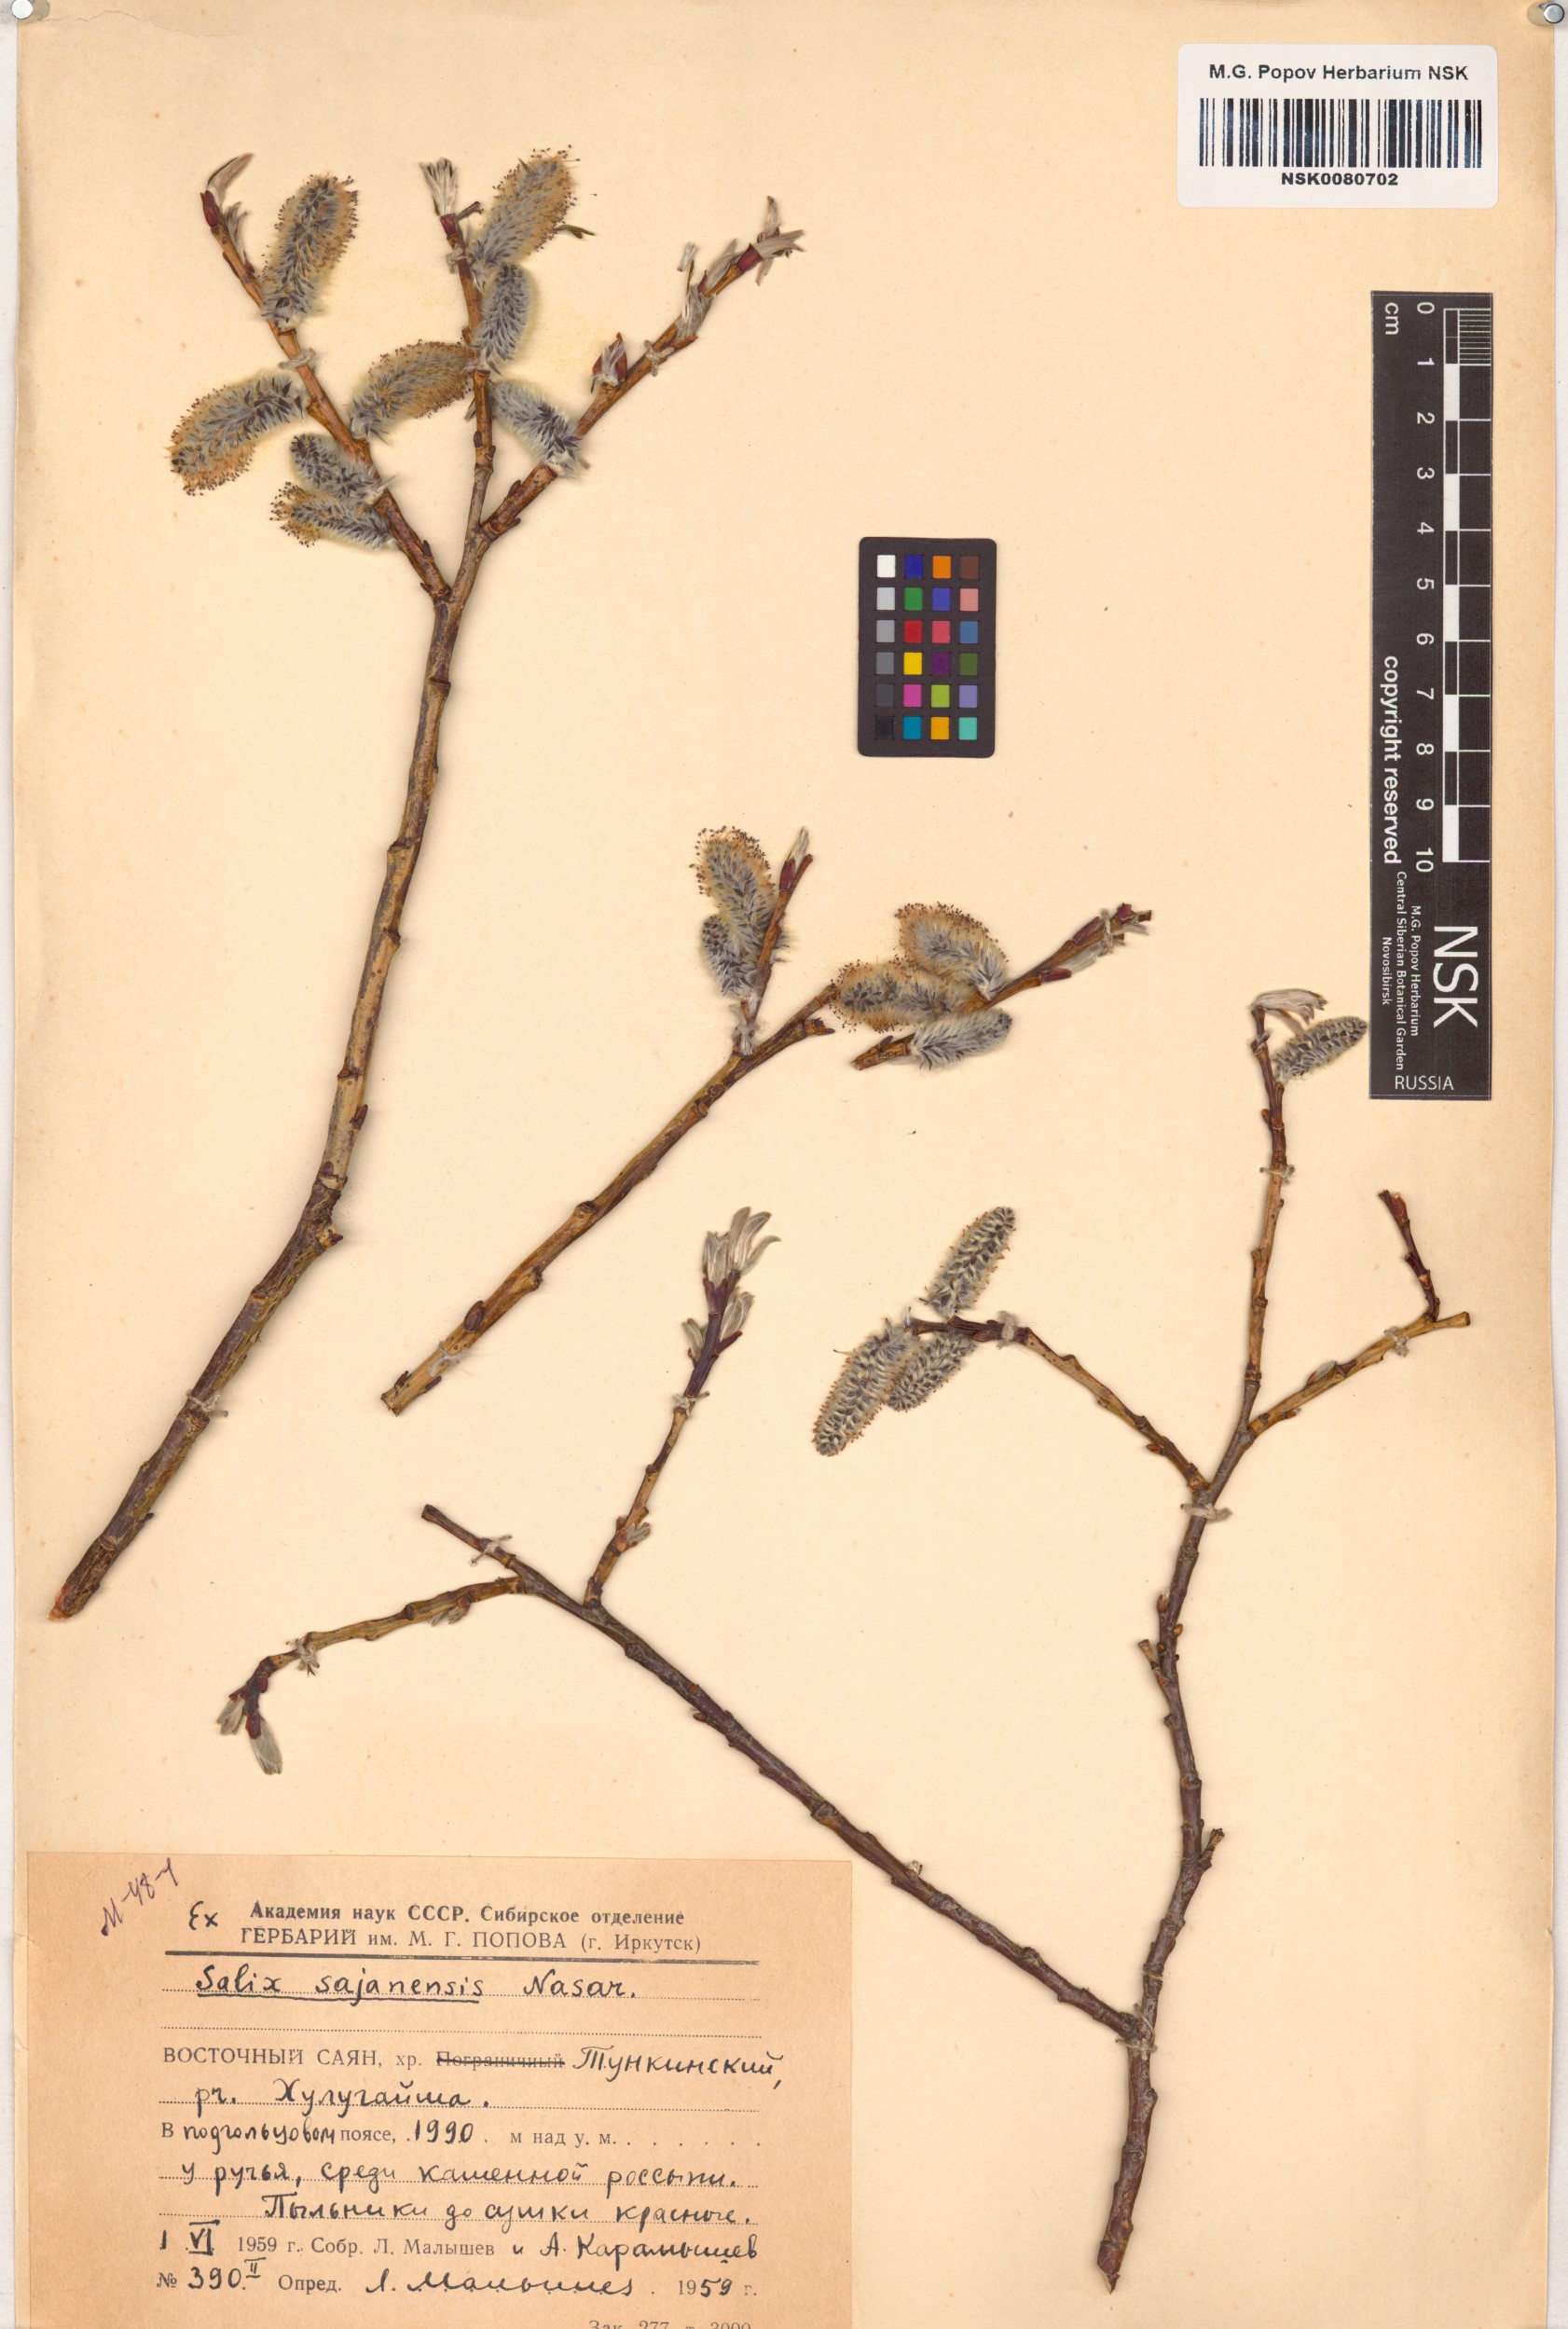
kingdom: Plantae
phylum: Tracheophyta
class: Magnoliopsida
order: Malpighiales
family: Salicaceae
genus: Salix
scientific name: Salix sajanensis
